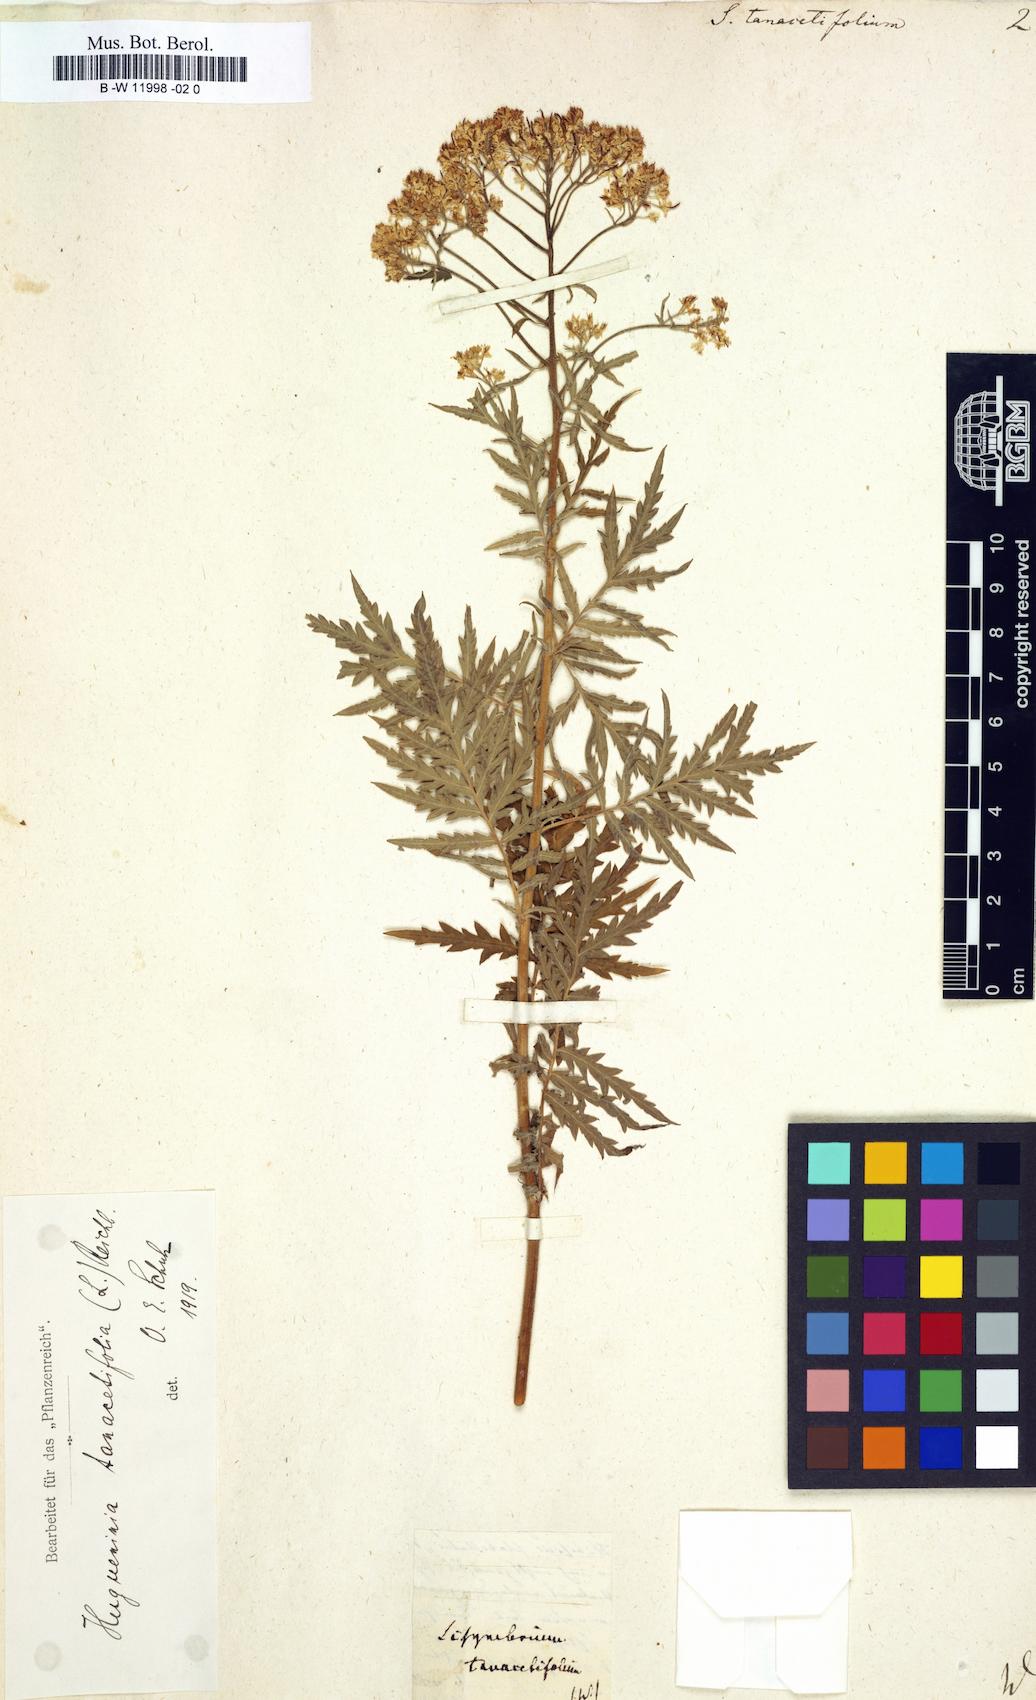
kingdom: Plantae
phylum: Tracheophyta
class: Magnoliopsida
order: Brassicales
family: Brassicaceae
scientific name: Brassicaceae
